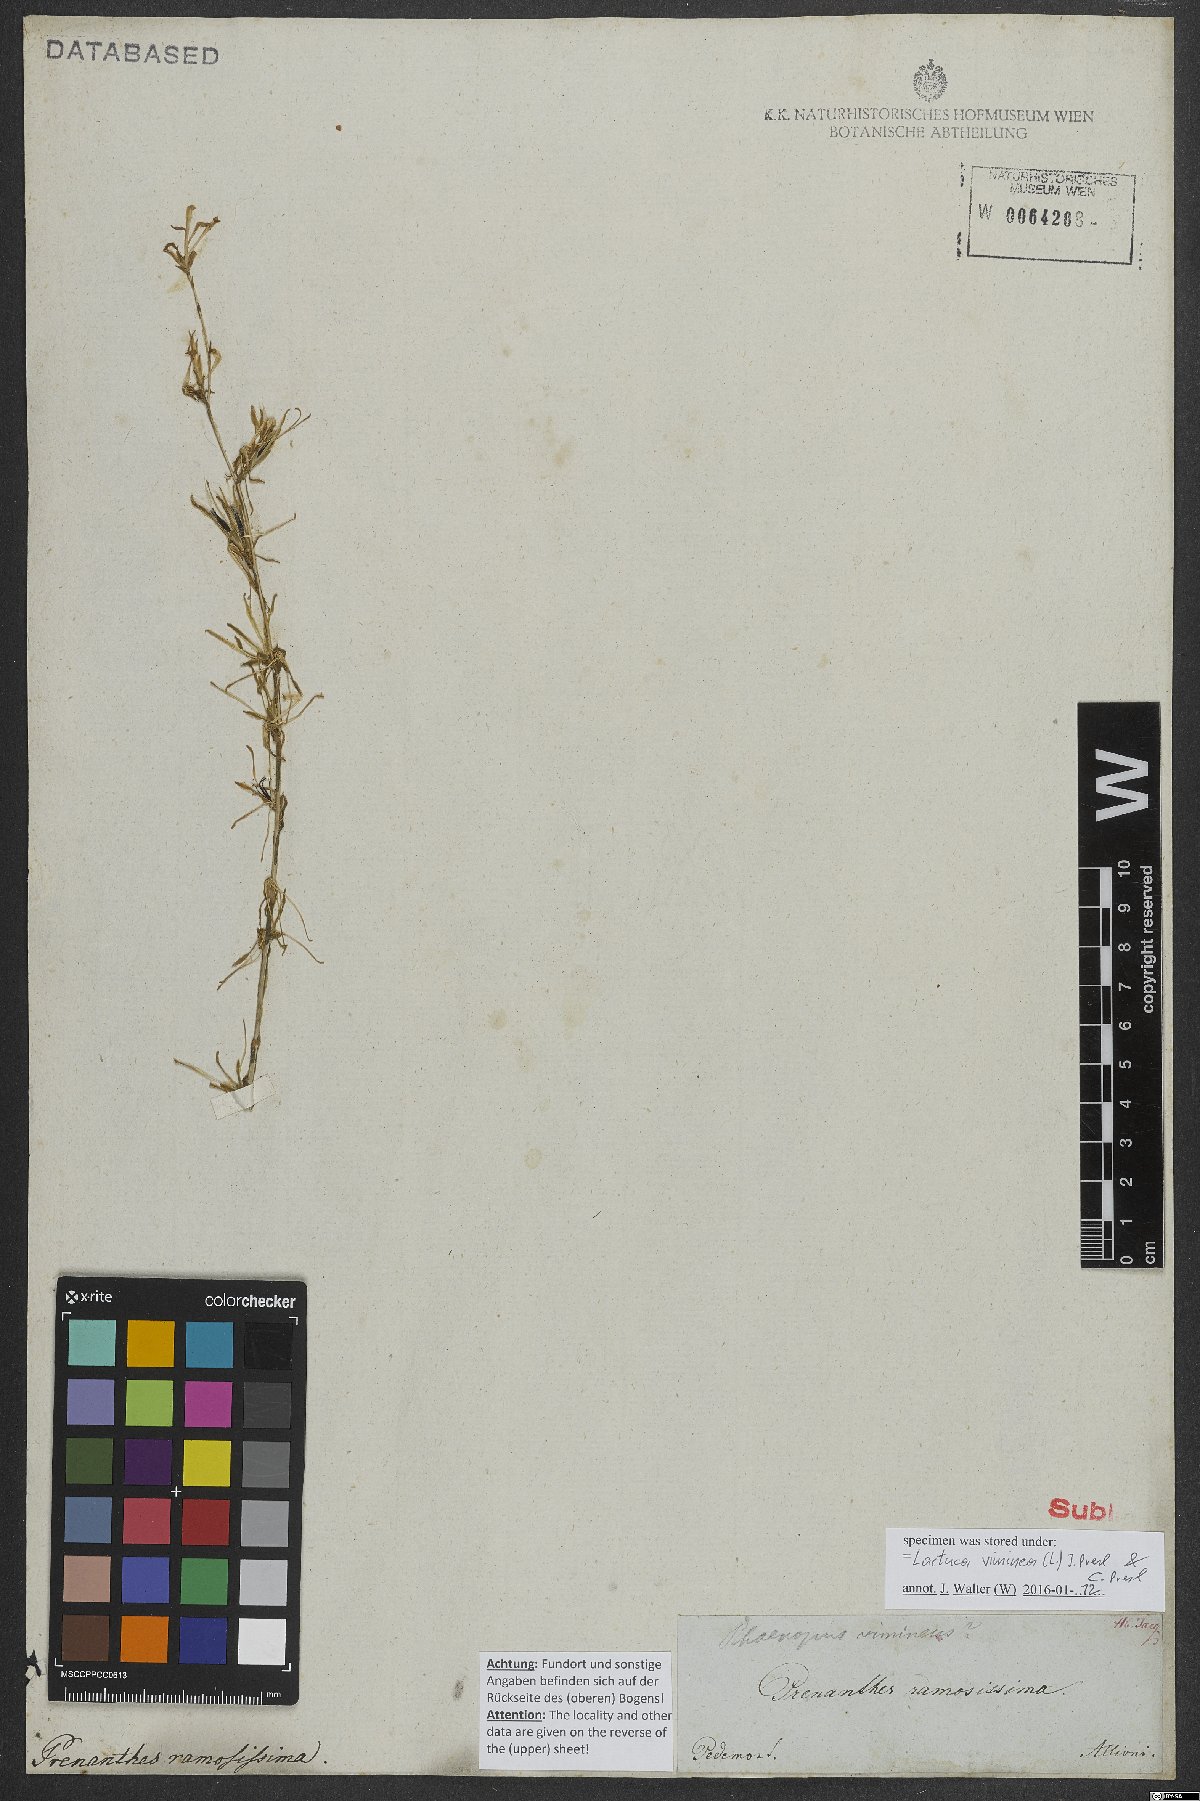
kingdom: Plantae
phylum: Tracheophyta
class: Magnoliopsida
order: Asterales
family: Asteraceae
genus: Lactuca
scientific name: Lactuca viminea
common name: Pliant lettuce
